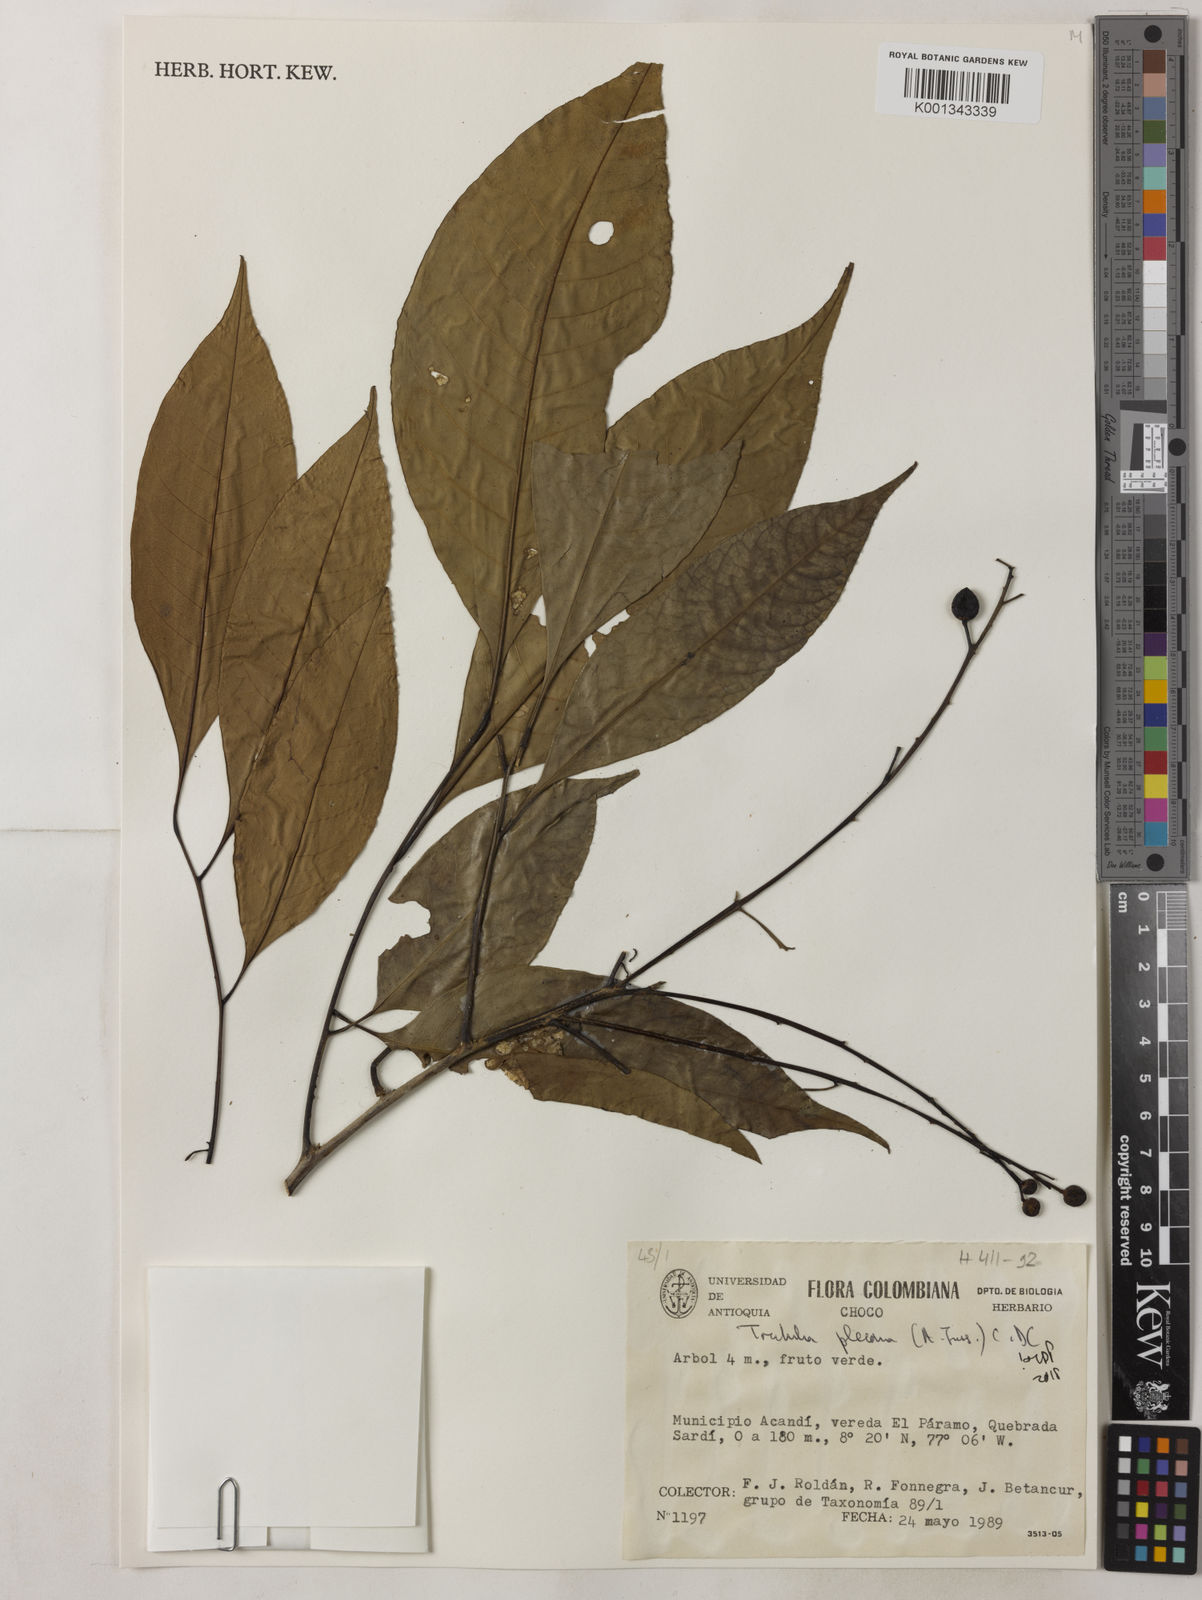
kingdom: Plantae
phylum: Tracheophyta
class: Magnoliopsida
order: Sapindales
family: Meliaceae
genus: Trichilia
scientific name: Trichilia pleeana
